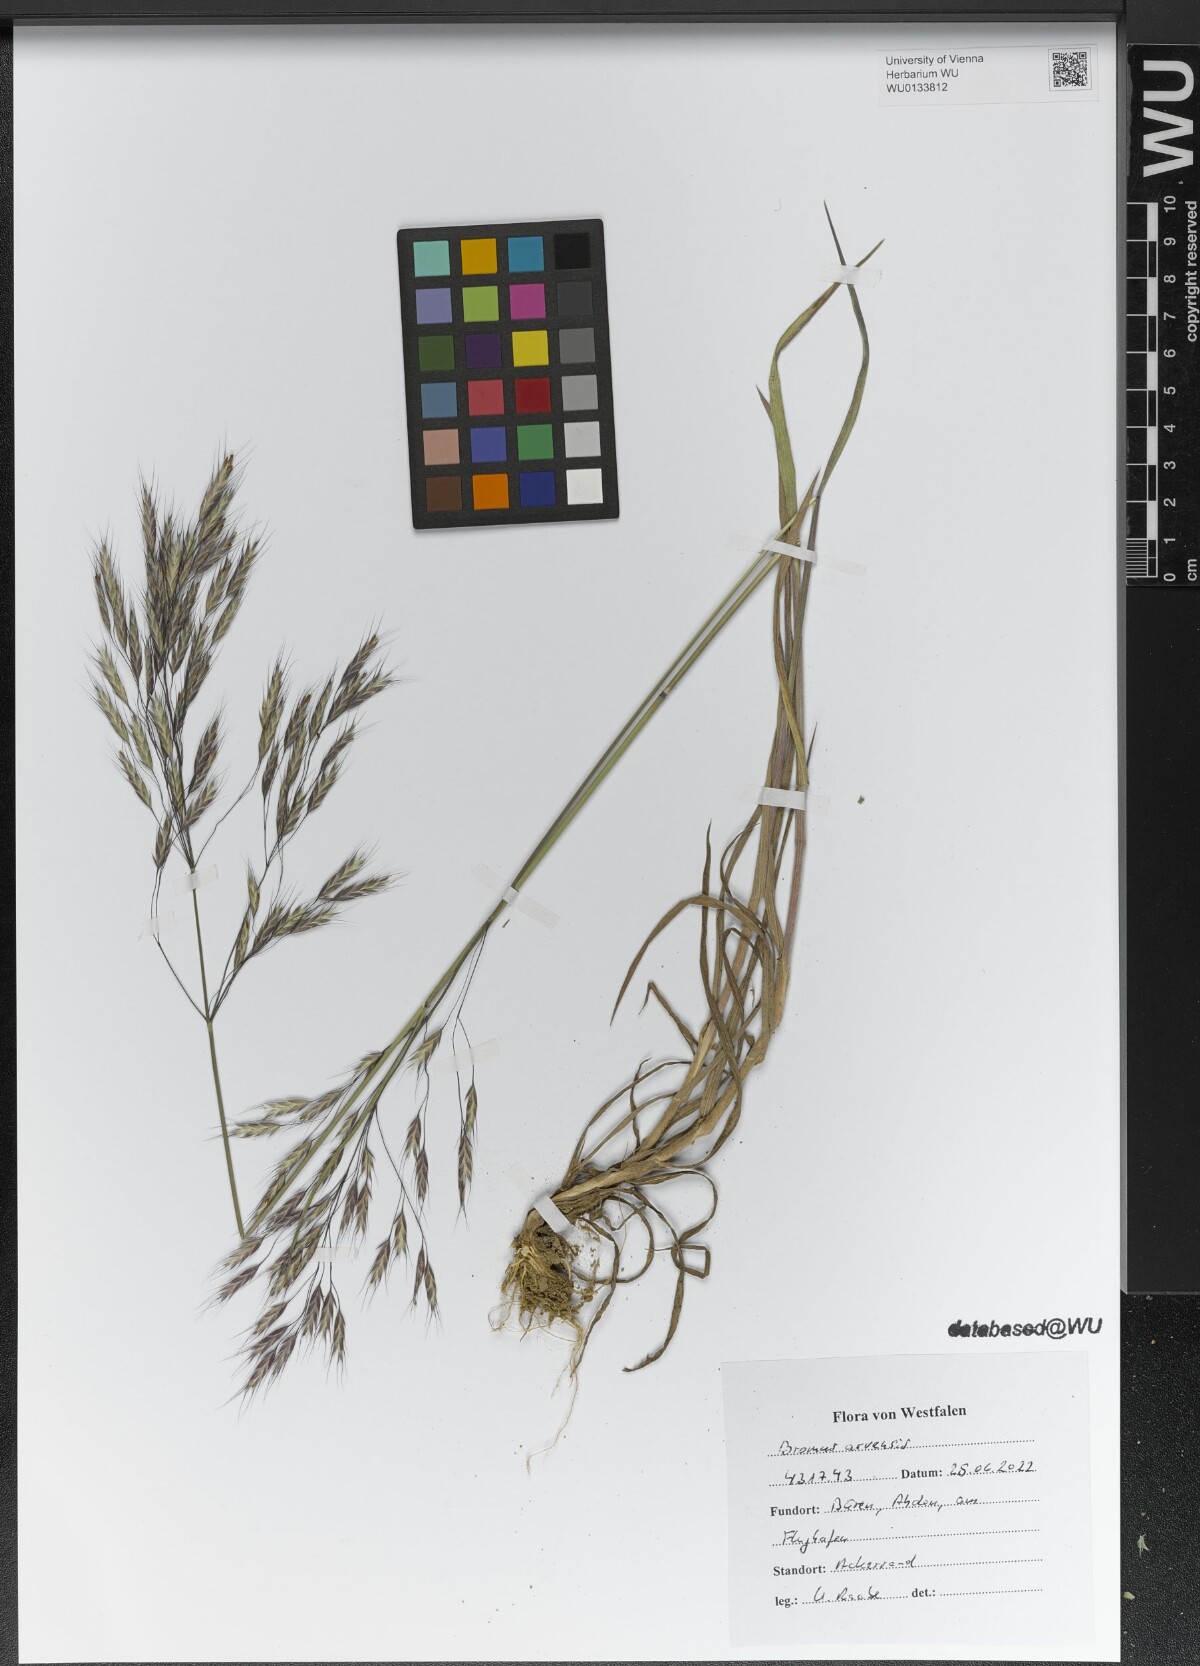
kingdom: Plantae
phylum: Tracheophyta
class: Liliopsida
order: Poales
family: Poaceae
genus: Bromus
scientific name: Bromus arvensis
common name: Field brome
